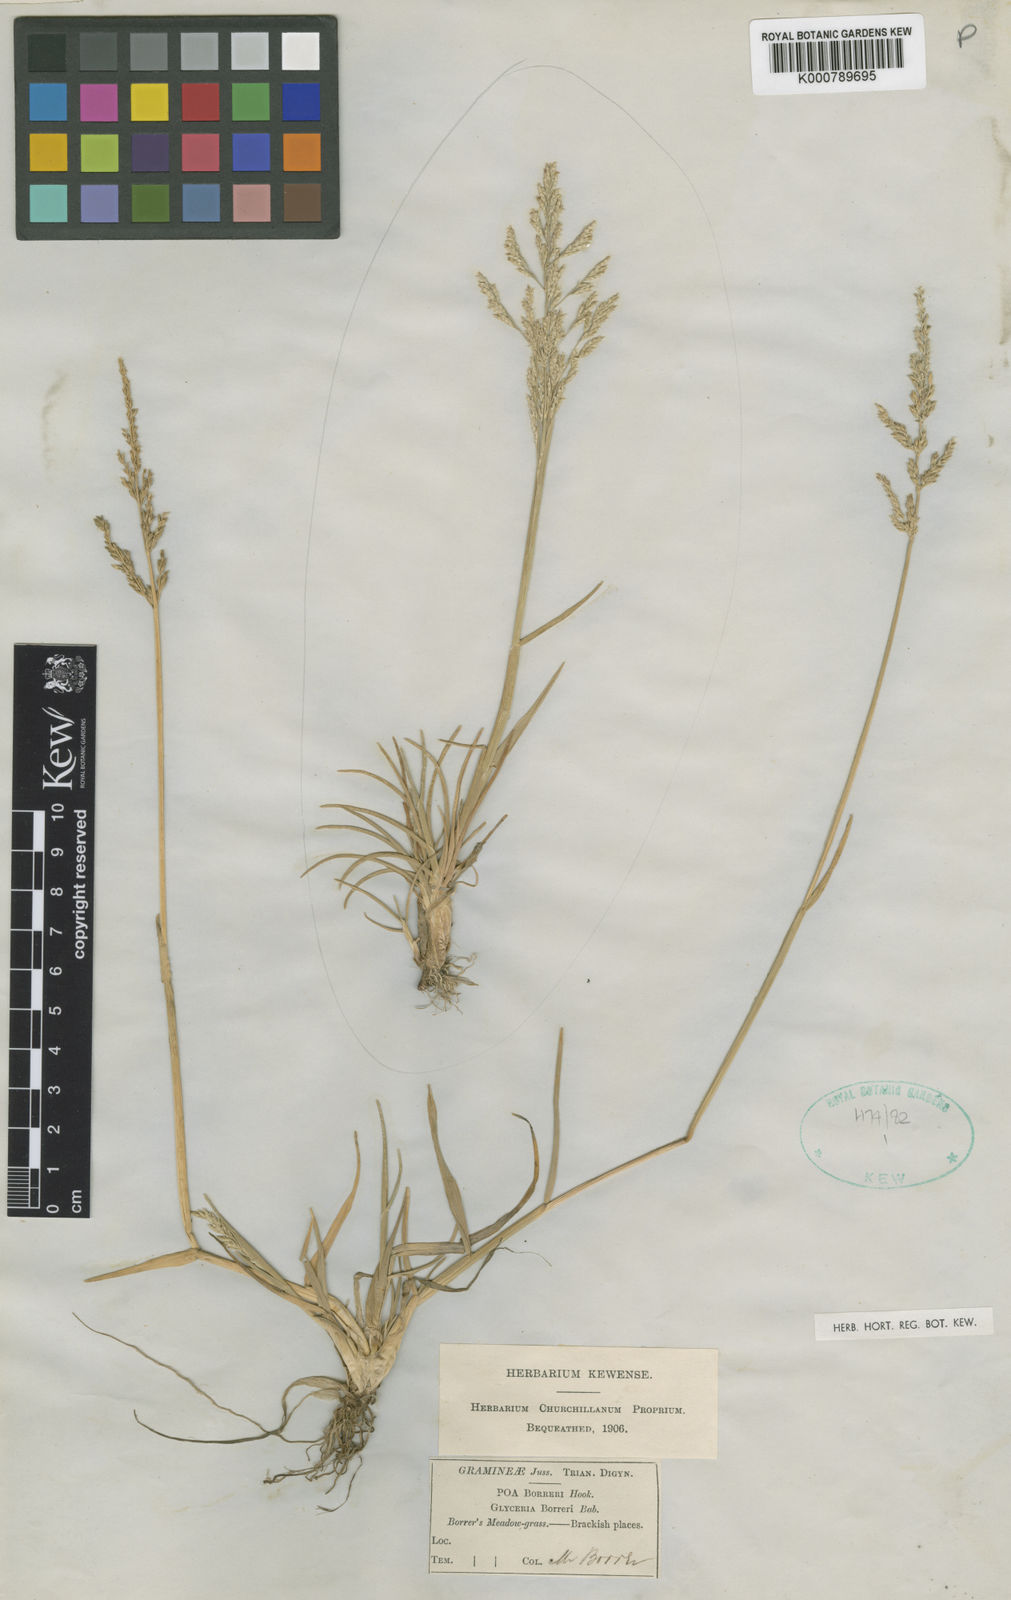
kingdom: Plantae
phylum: Tracheophyta
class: Liliopsida
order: Poales
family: Poaceae
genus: Puccinellia
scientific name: Puccinellia fasciculata
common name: Borrer's saltmarsh-grass
